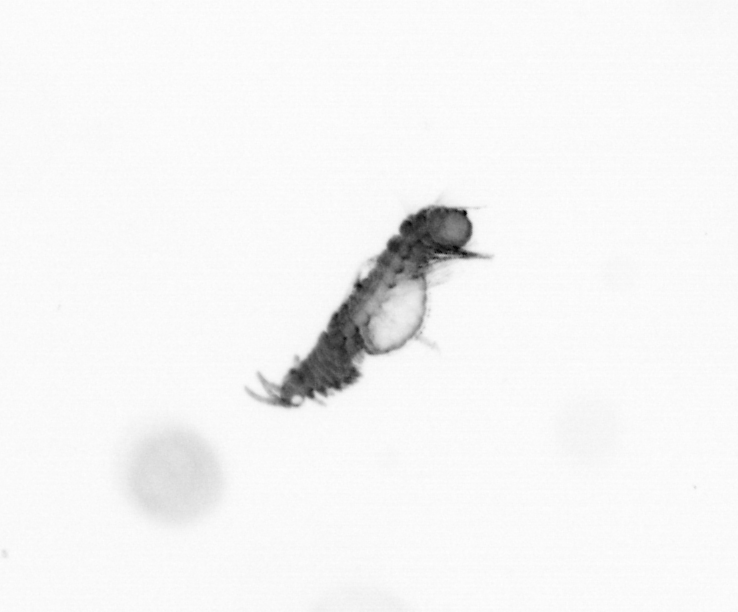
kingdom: Animalia
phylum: Annelida
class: Polychaeta
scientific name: Polychaeta
